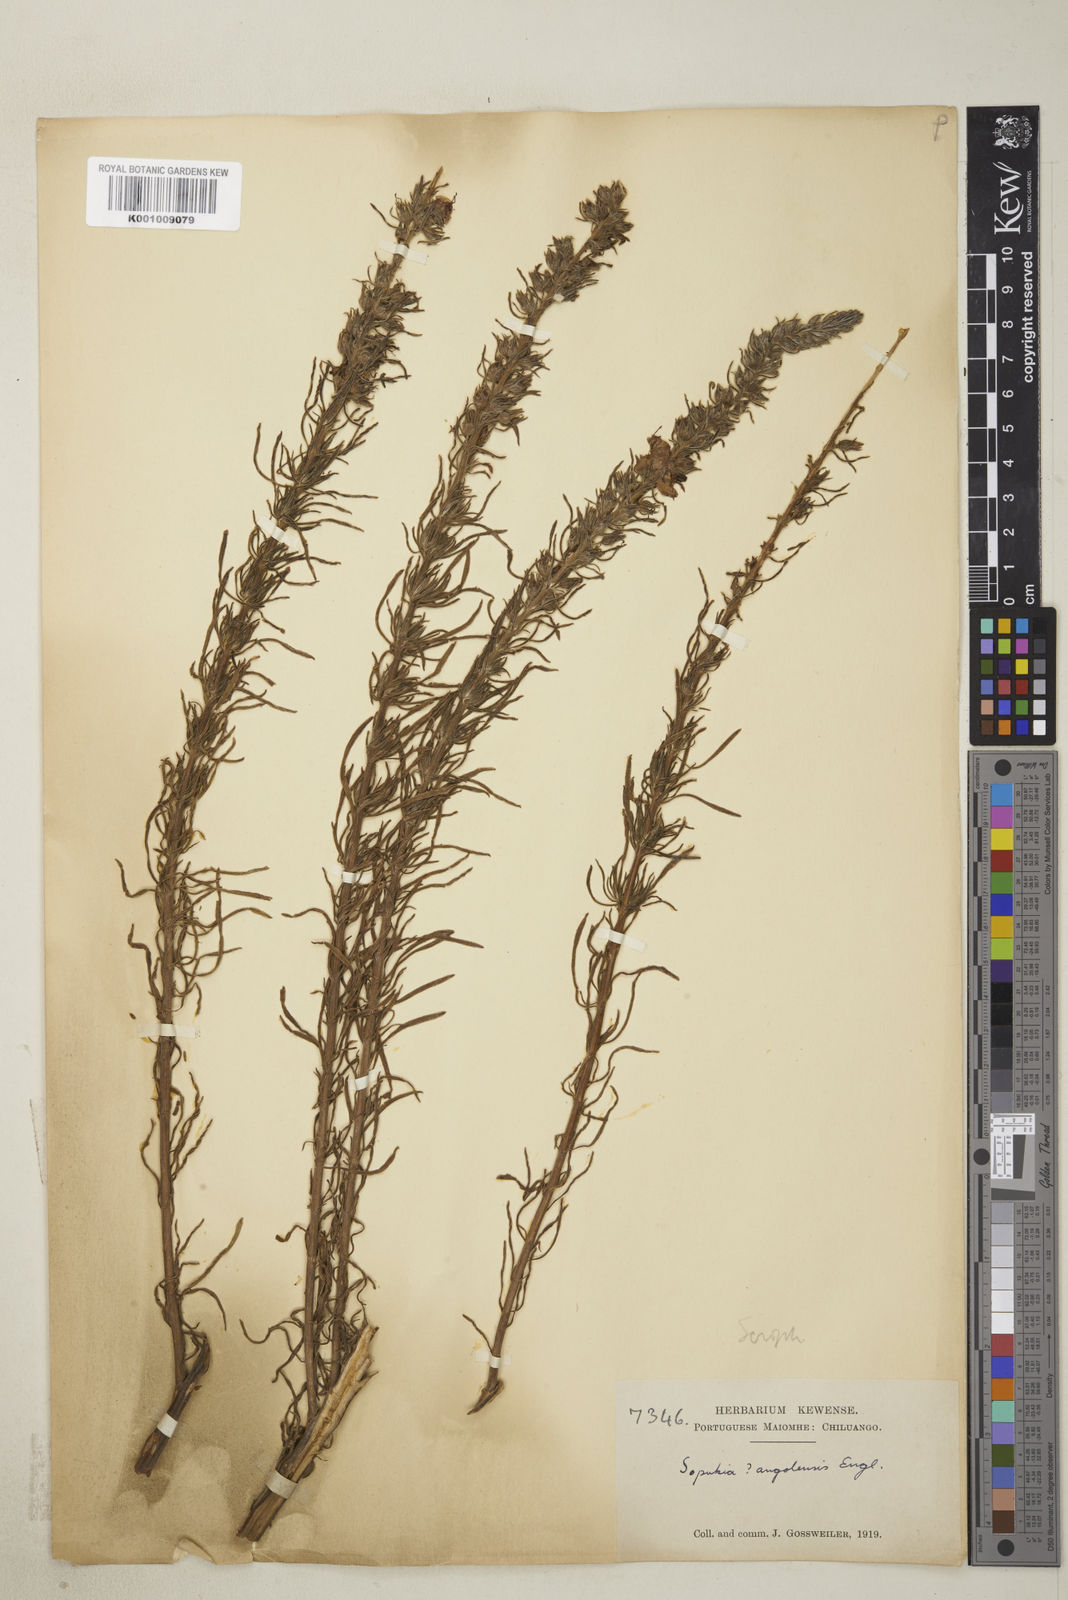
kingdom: Plantae
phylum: Tracheophyta
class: Magnoliopsida
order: Lamiales
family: Orobanchaceae
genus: Sopubia
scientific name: Sopubia cana
